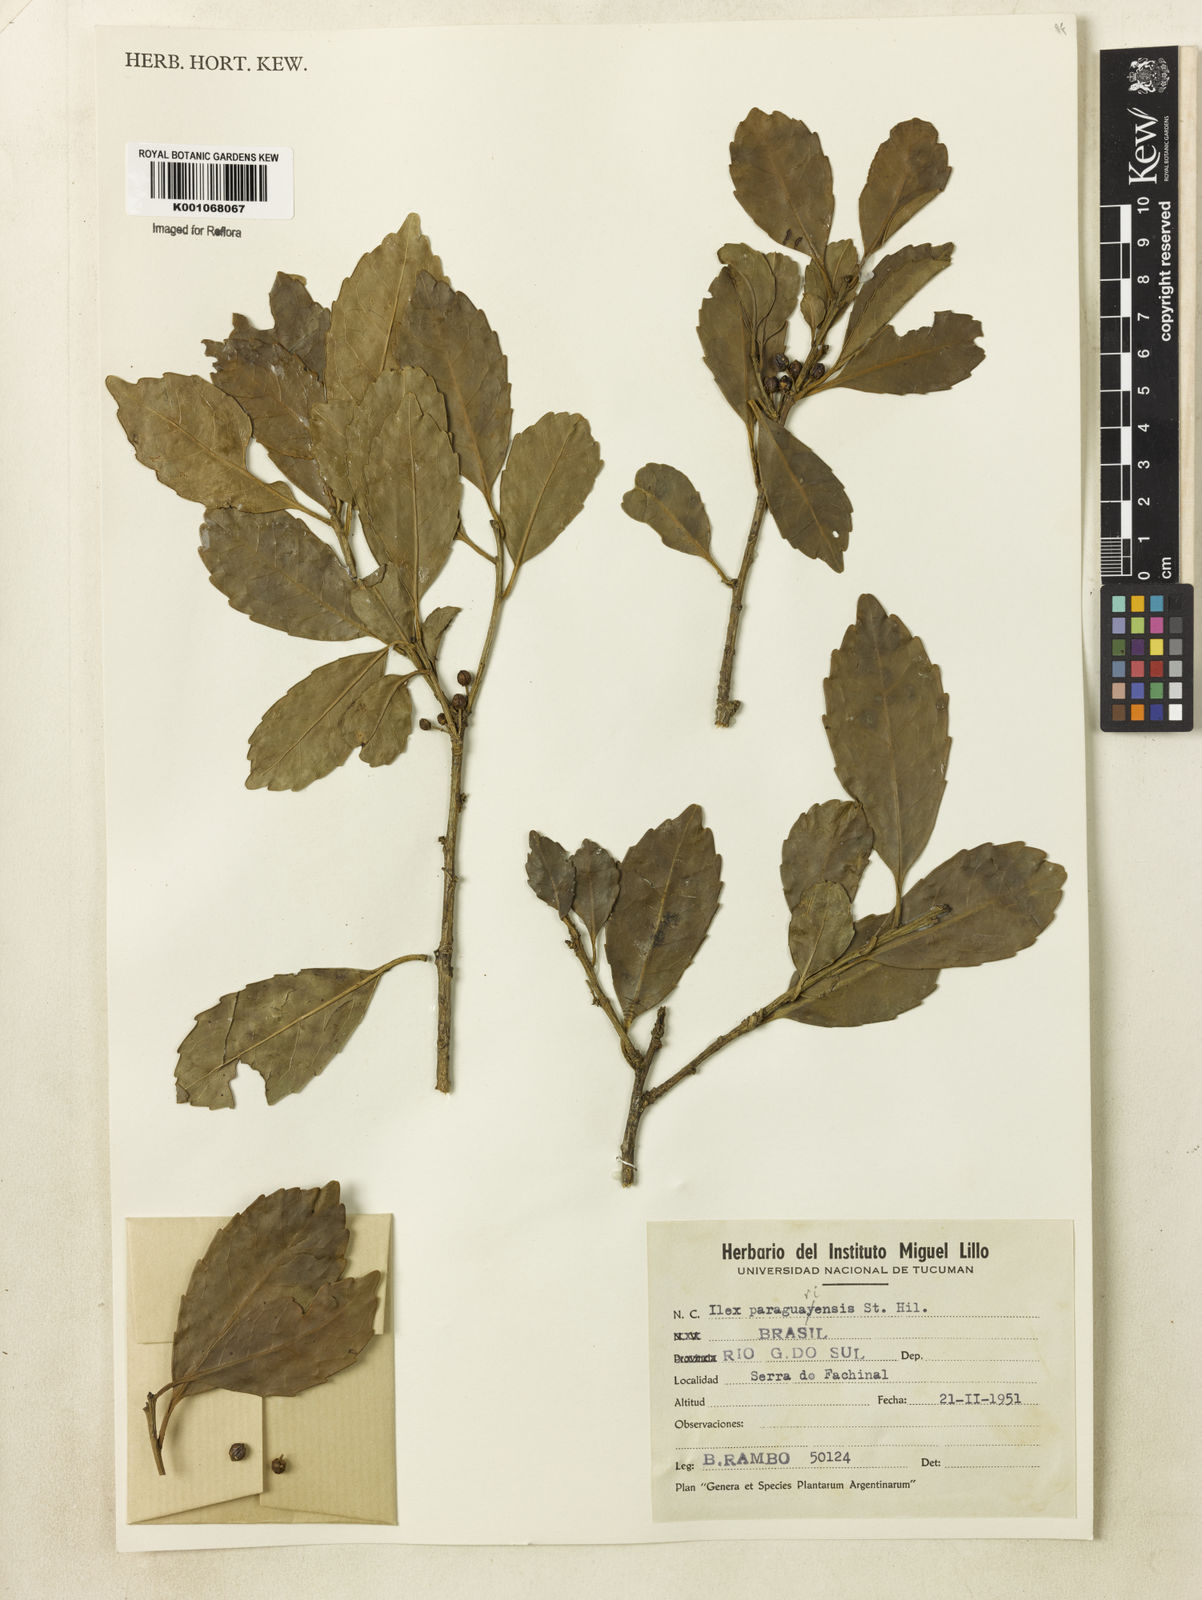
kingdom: Plantae
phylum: Tracheophyta
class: Magnoliopsida
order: Aquifoliales
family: Aquifoliaceae
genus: Ilex
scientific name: Ilex paraguariensis
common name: Paraguay tea
